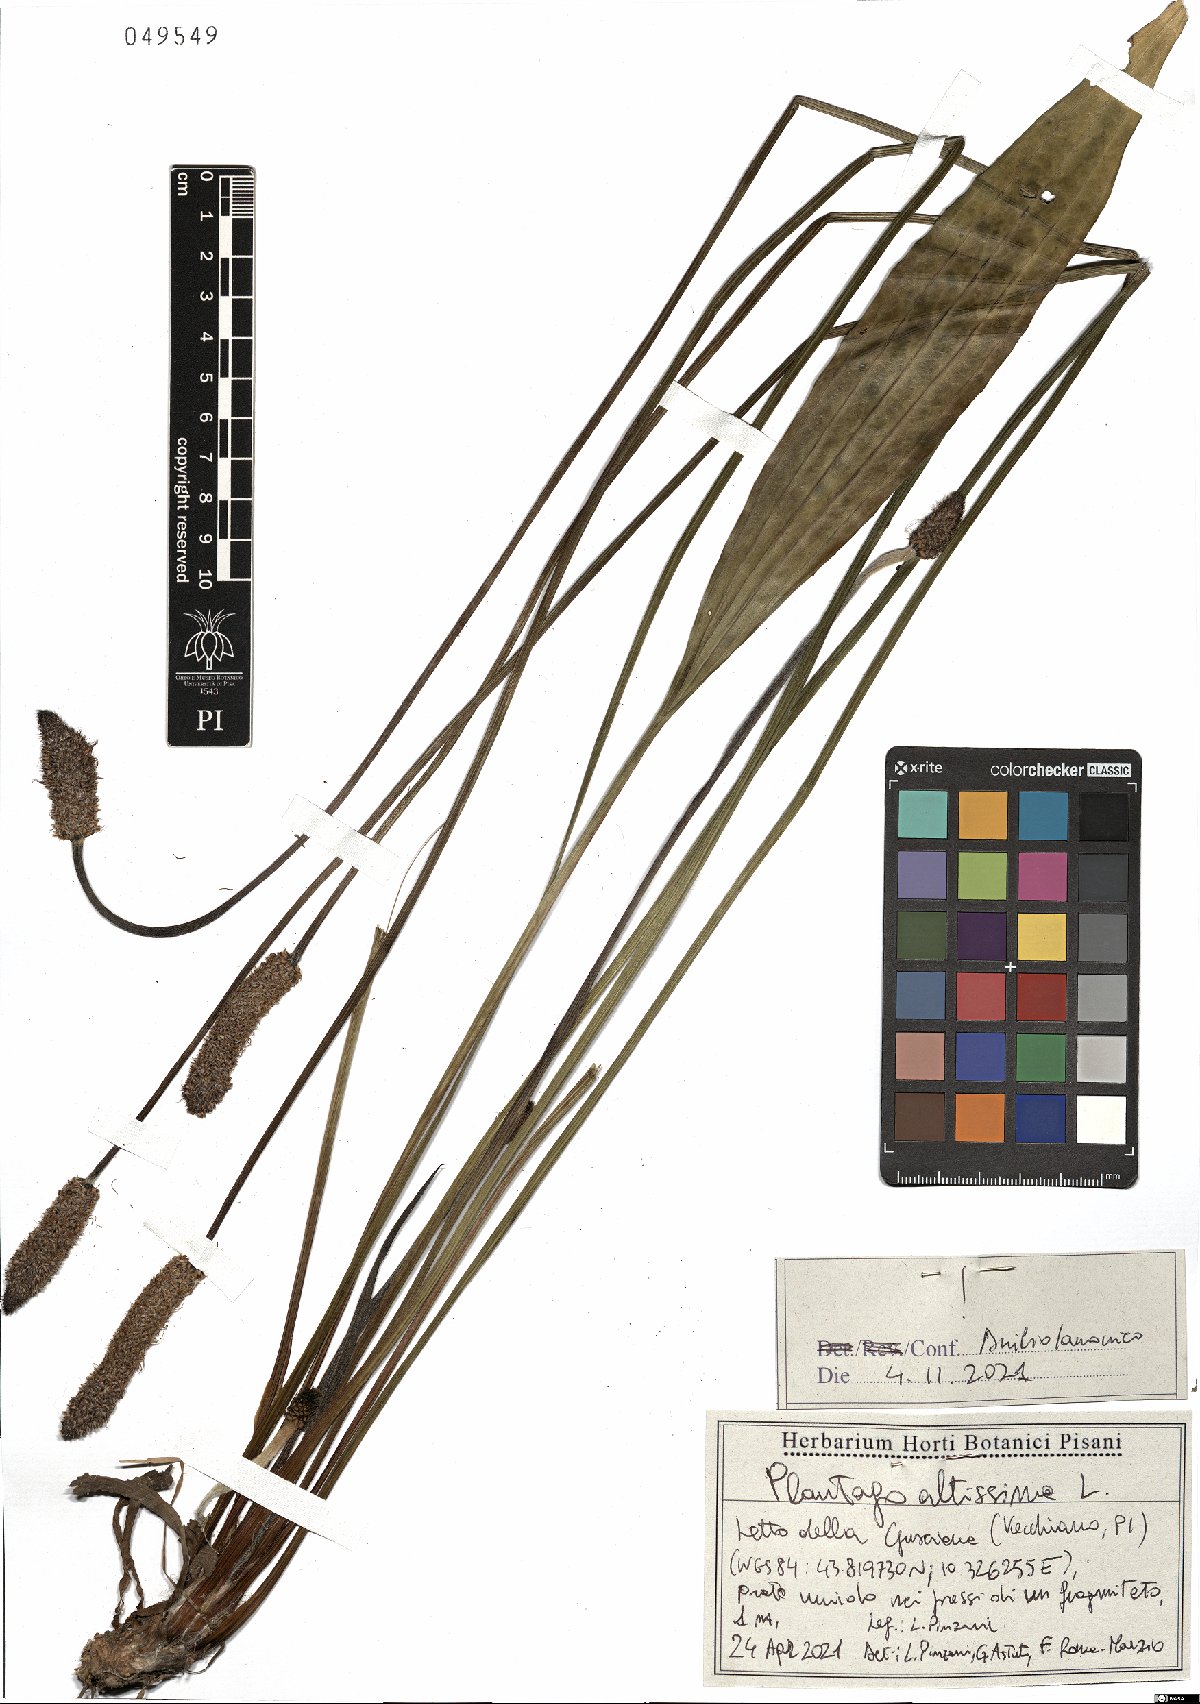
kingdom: Plantae
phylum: Tracheophyta
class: Magnoliopsida
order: Lamiales
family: Plantaginaceae
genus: Plantago
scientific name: Plantago altissima
